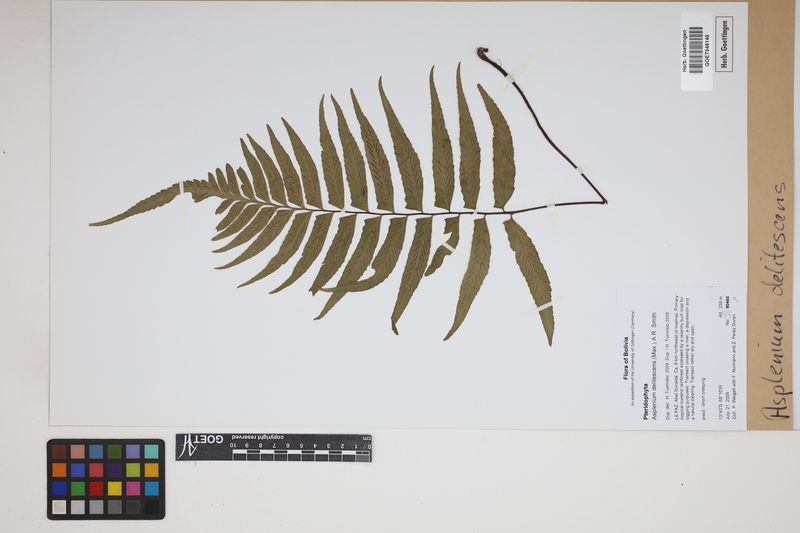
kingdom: Plantae
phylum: Tracheophyta
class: Polypodiopsida
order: Polypodiales
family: Aspleniaceae
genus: Hymenasplenium
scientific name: Hymenasplenium delitescens
